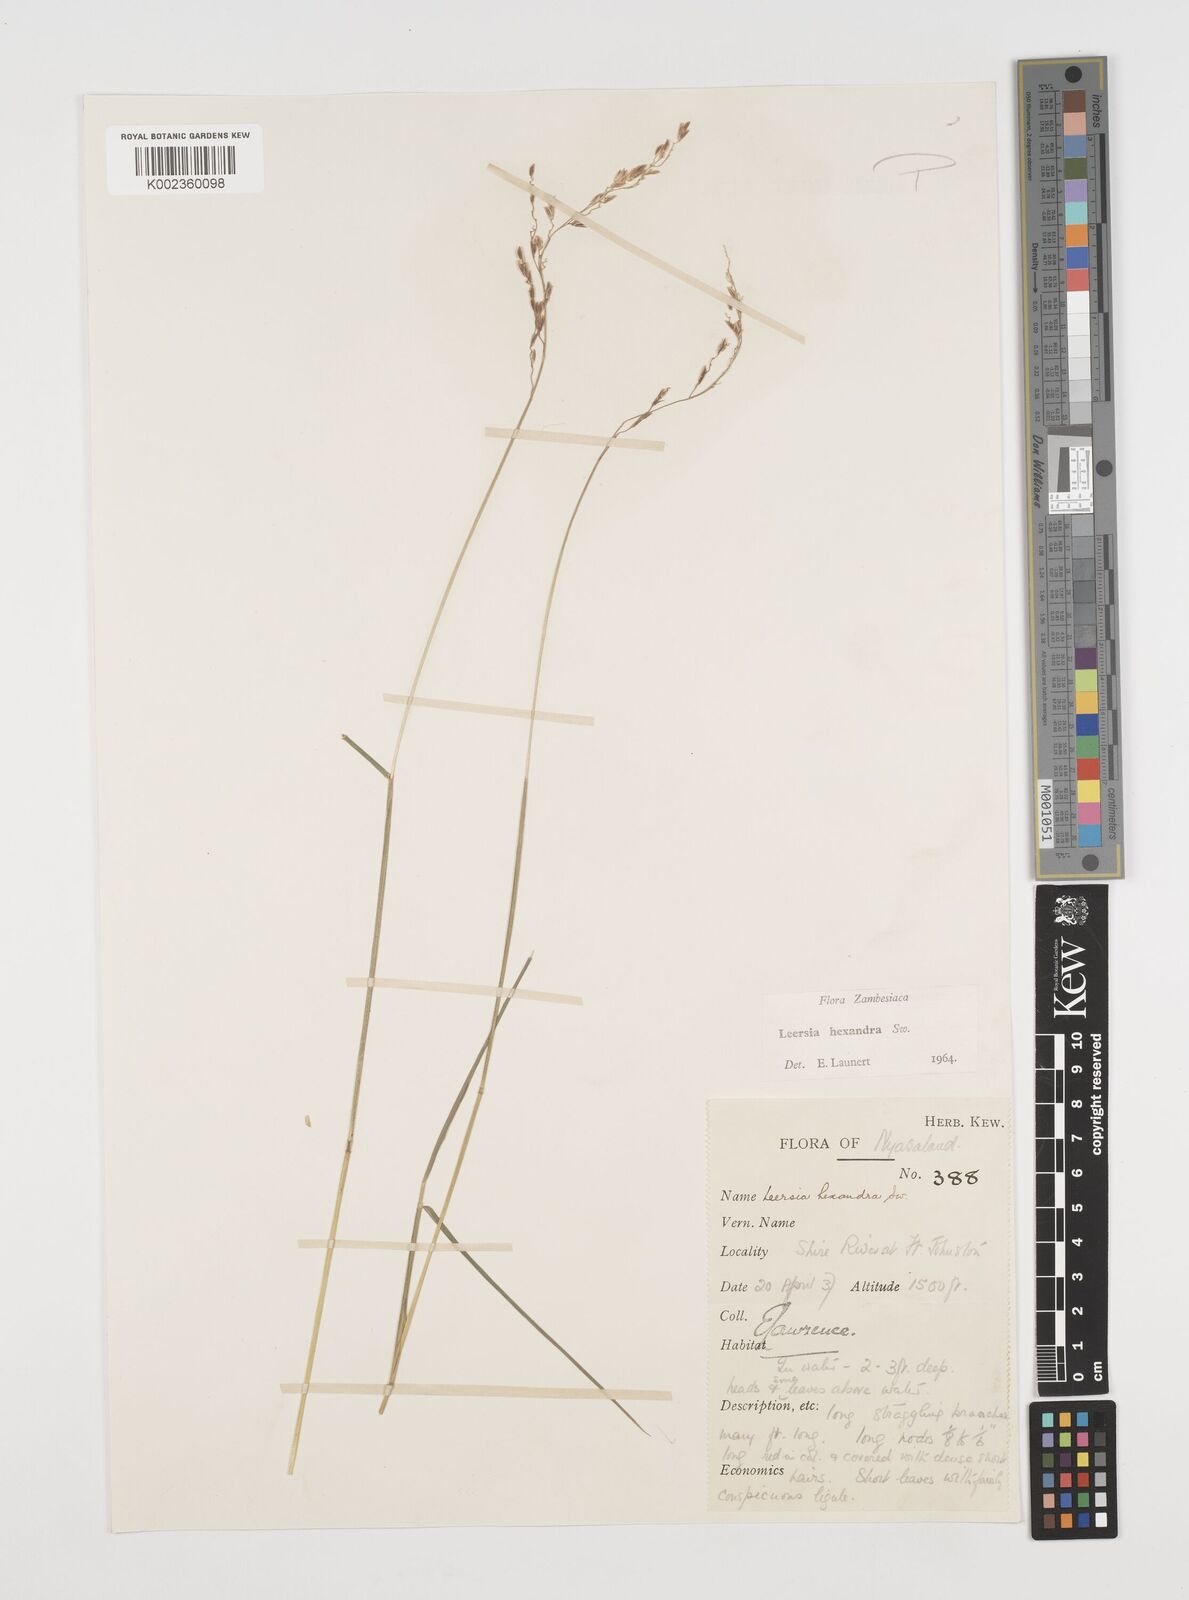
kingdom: Plantae
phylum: Tracheophyta
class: Liliopsida
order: Poales
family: Poaceae
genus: Leersia
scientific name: Leersia hexandra
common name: Southern cut grass
